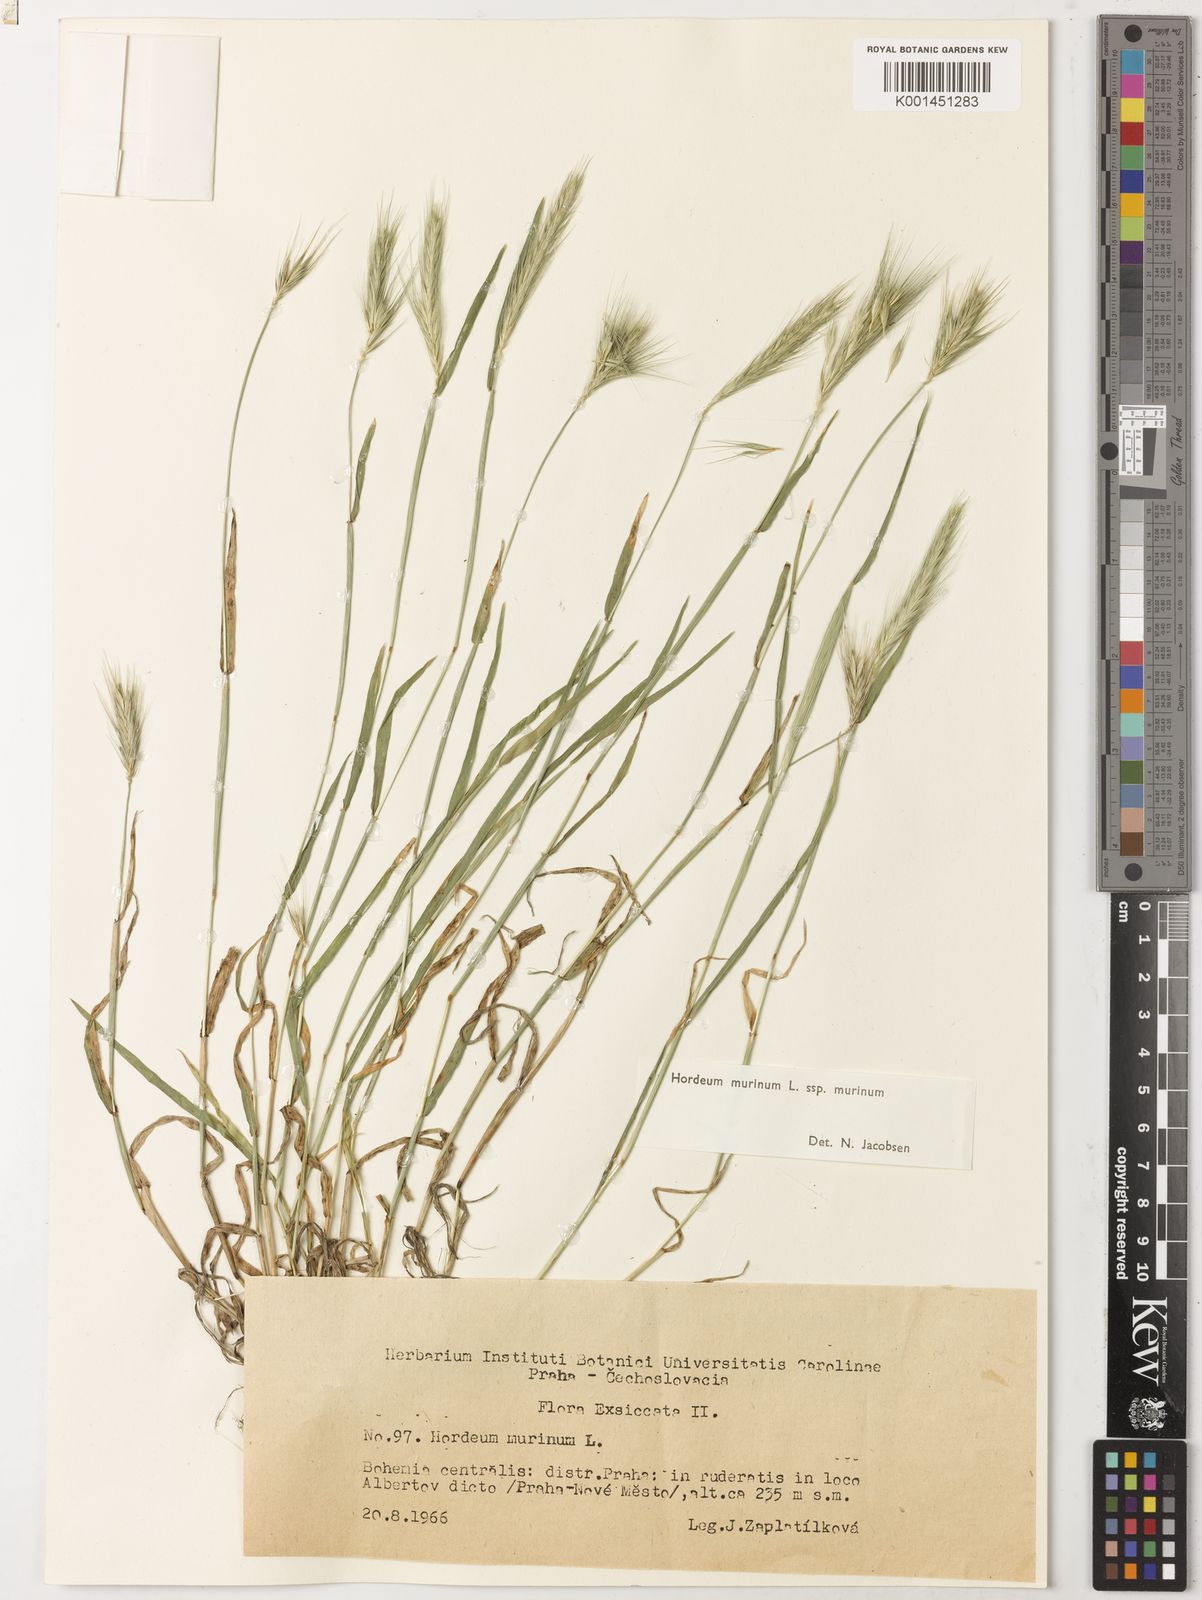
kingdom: Plantae
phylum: Tracheophyta
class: Liliopsida
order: Poales
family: Poaceae
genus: Hordeum
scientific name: Hordeum murinum
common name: Wall barley
